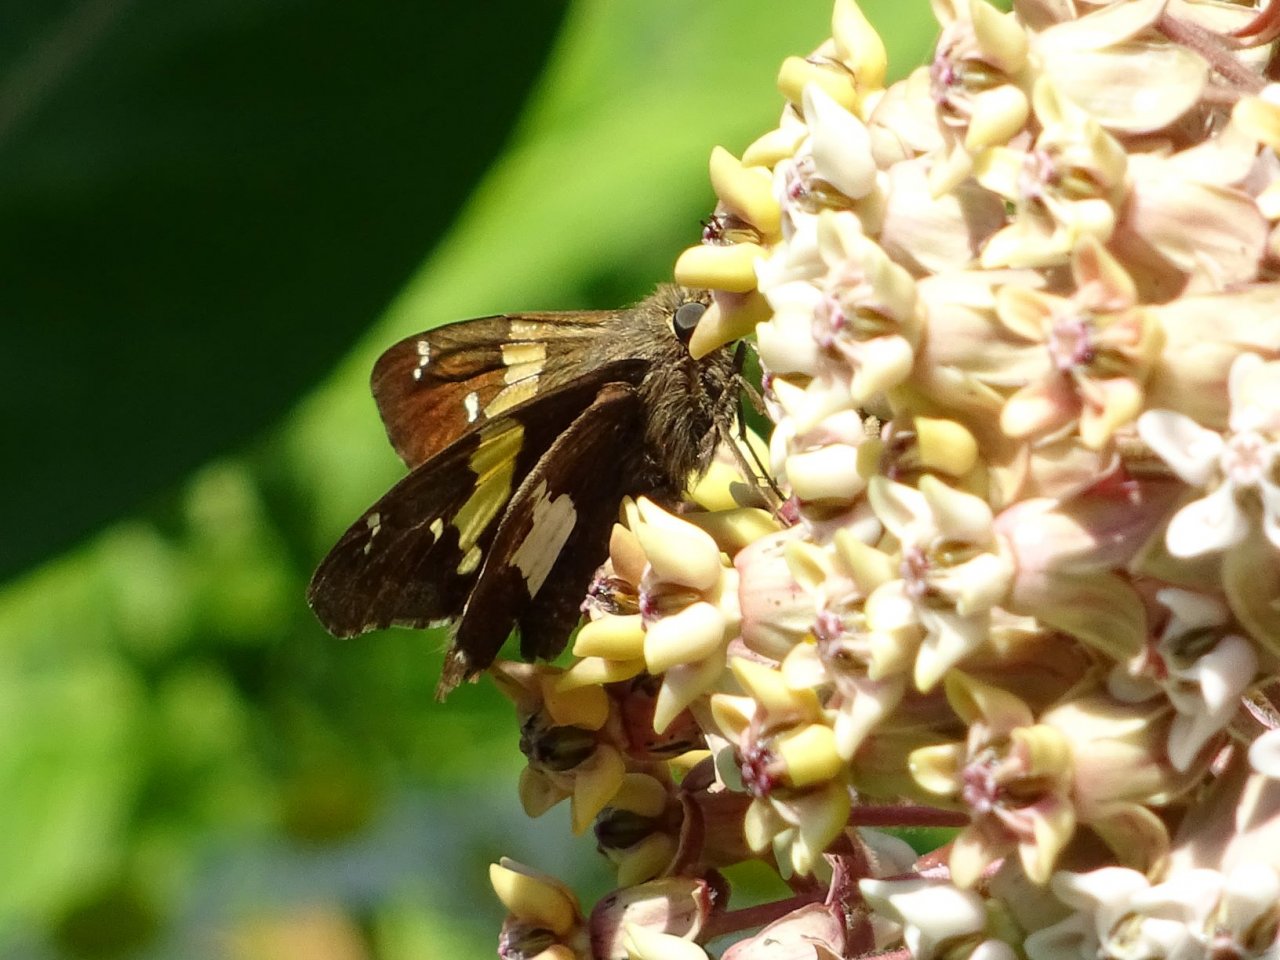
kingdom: Animalia
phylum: Arthropoda
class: Insecta
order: Lepidoptera
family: Hesperiidae
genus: Epargyreus
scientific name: Epargyreus clarus
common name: Silver-spotted Skipper
